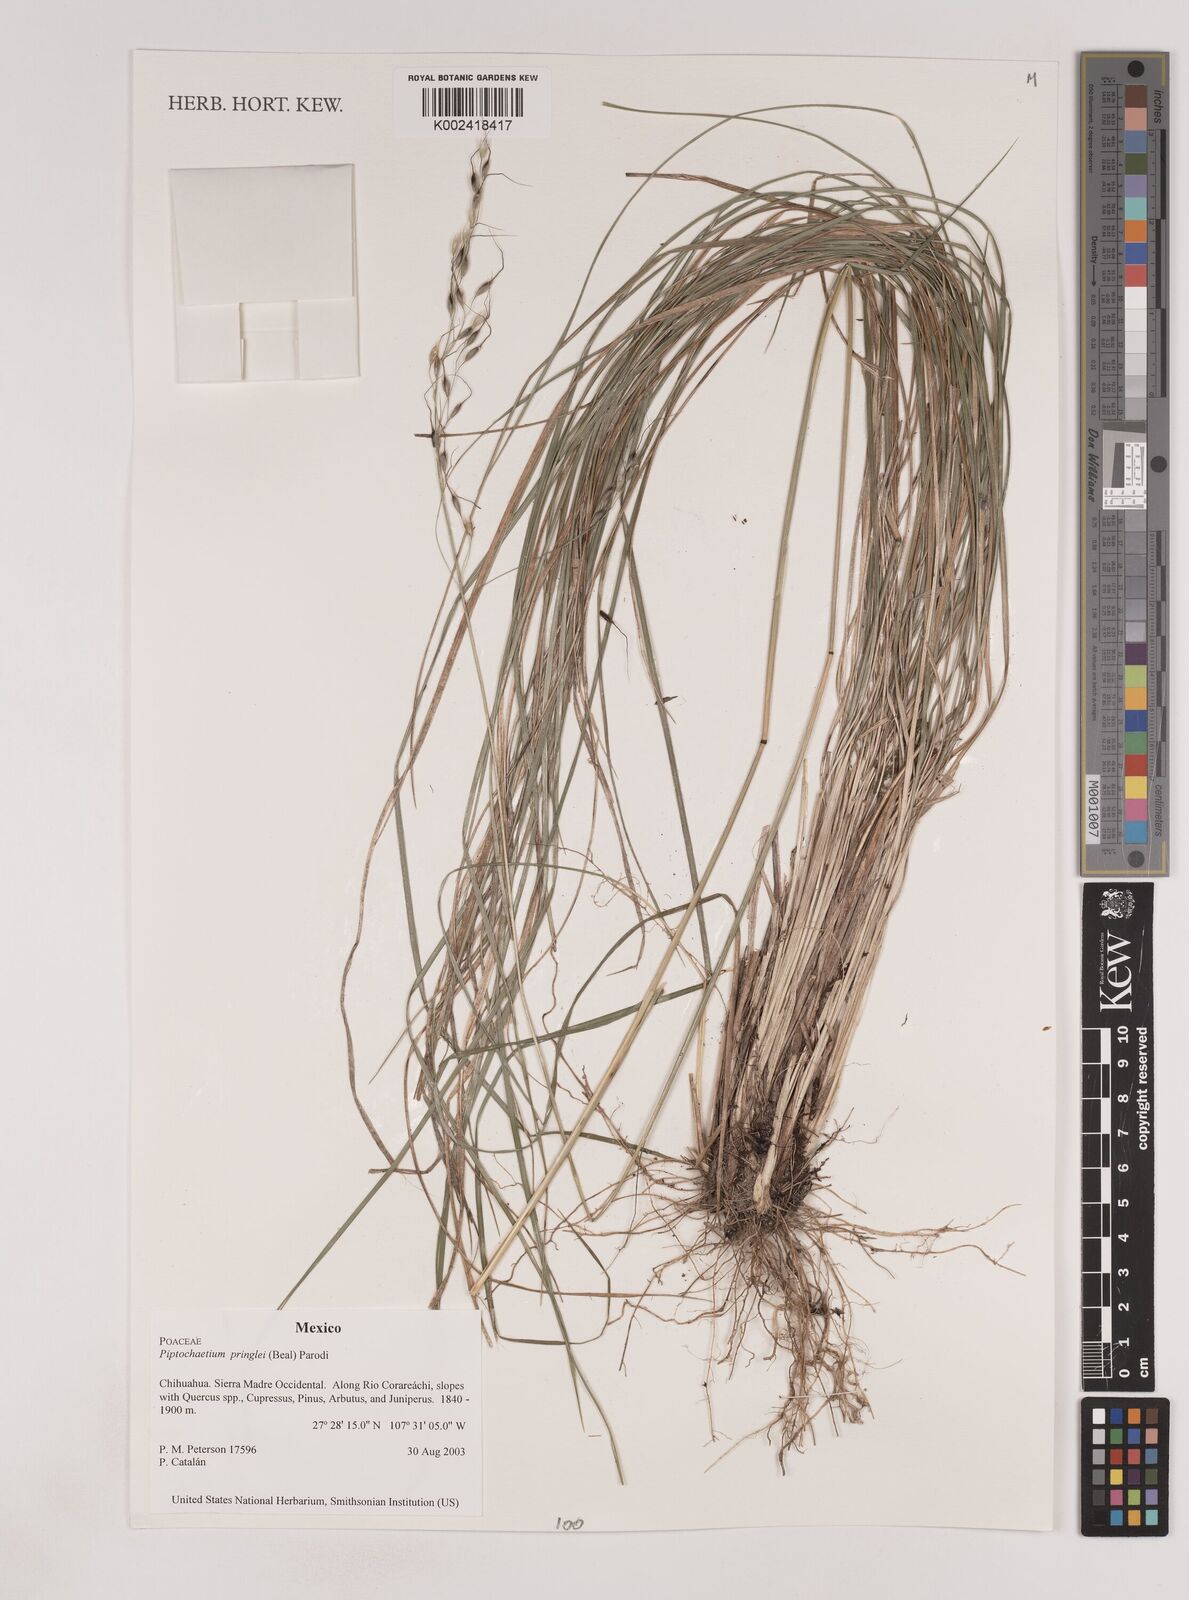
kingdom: Plantae
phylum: Tracheophyta
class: Liliopsida
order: Poales
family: Poaceae
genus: Piptochaetium
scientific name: Piptochaetium pringlei
